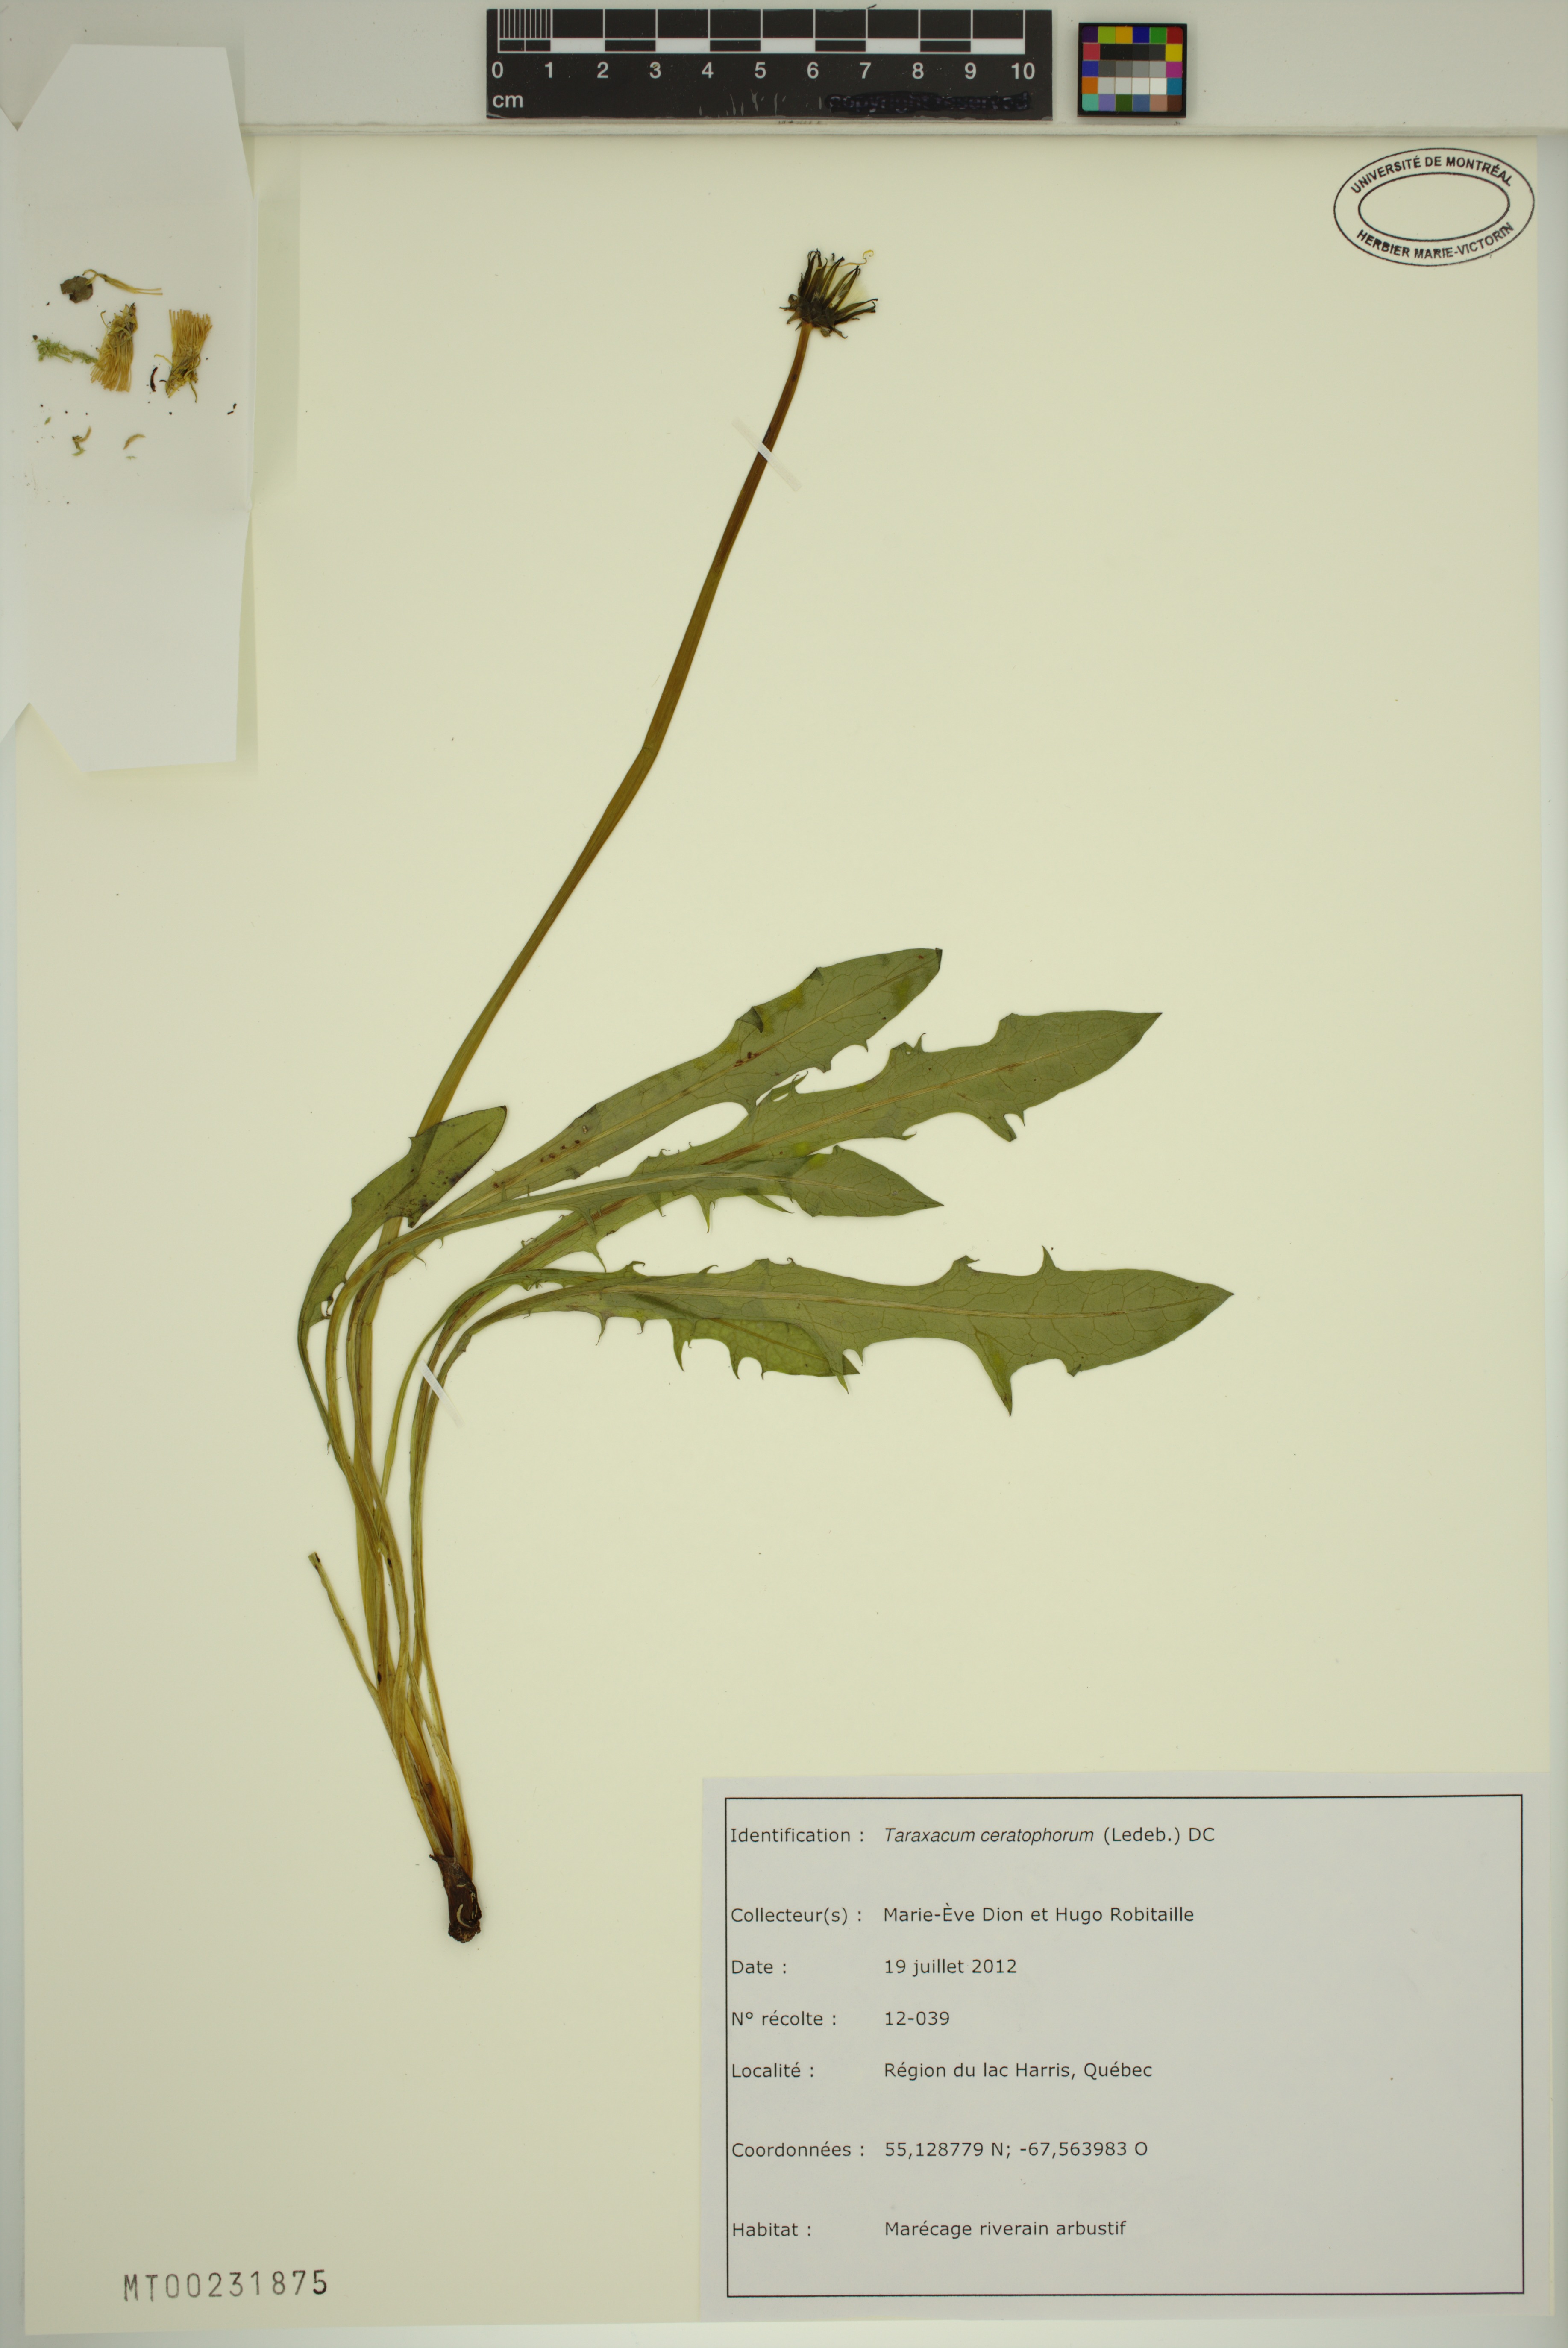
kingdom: Plantae
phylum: Tracheophyta
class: Magnoliopsida
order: Asterales
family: Asteraceae
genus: Taraxacum
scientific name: Taraxacum ceratophorum
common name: Horn-bearing dandelion
